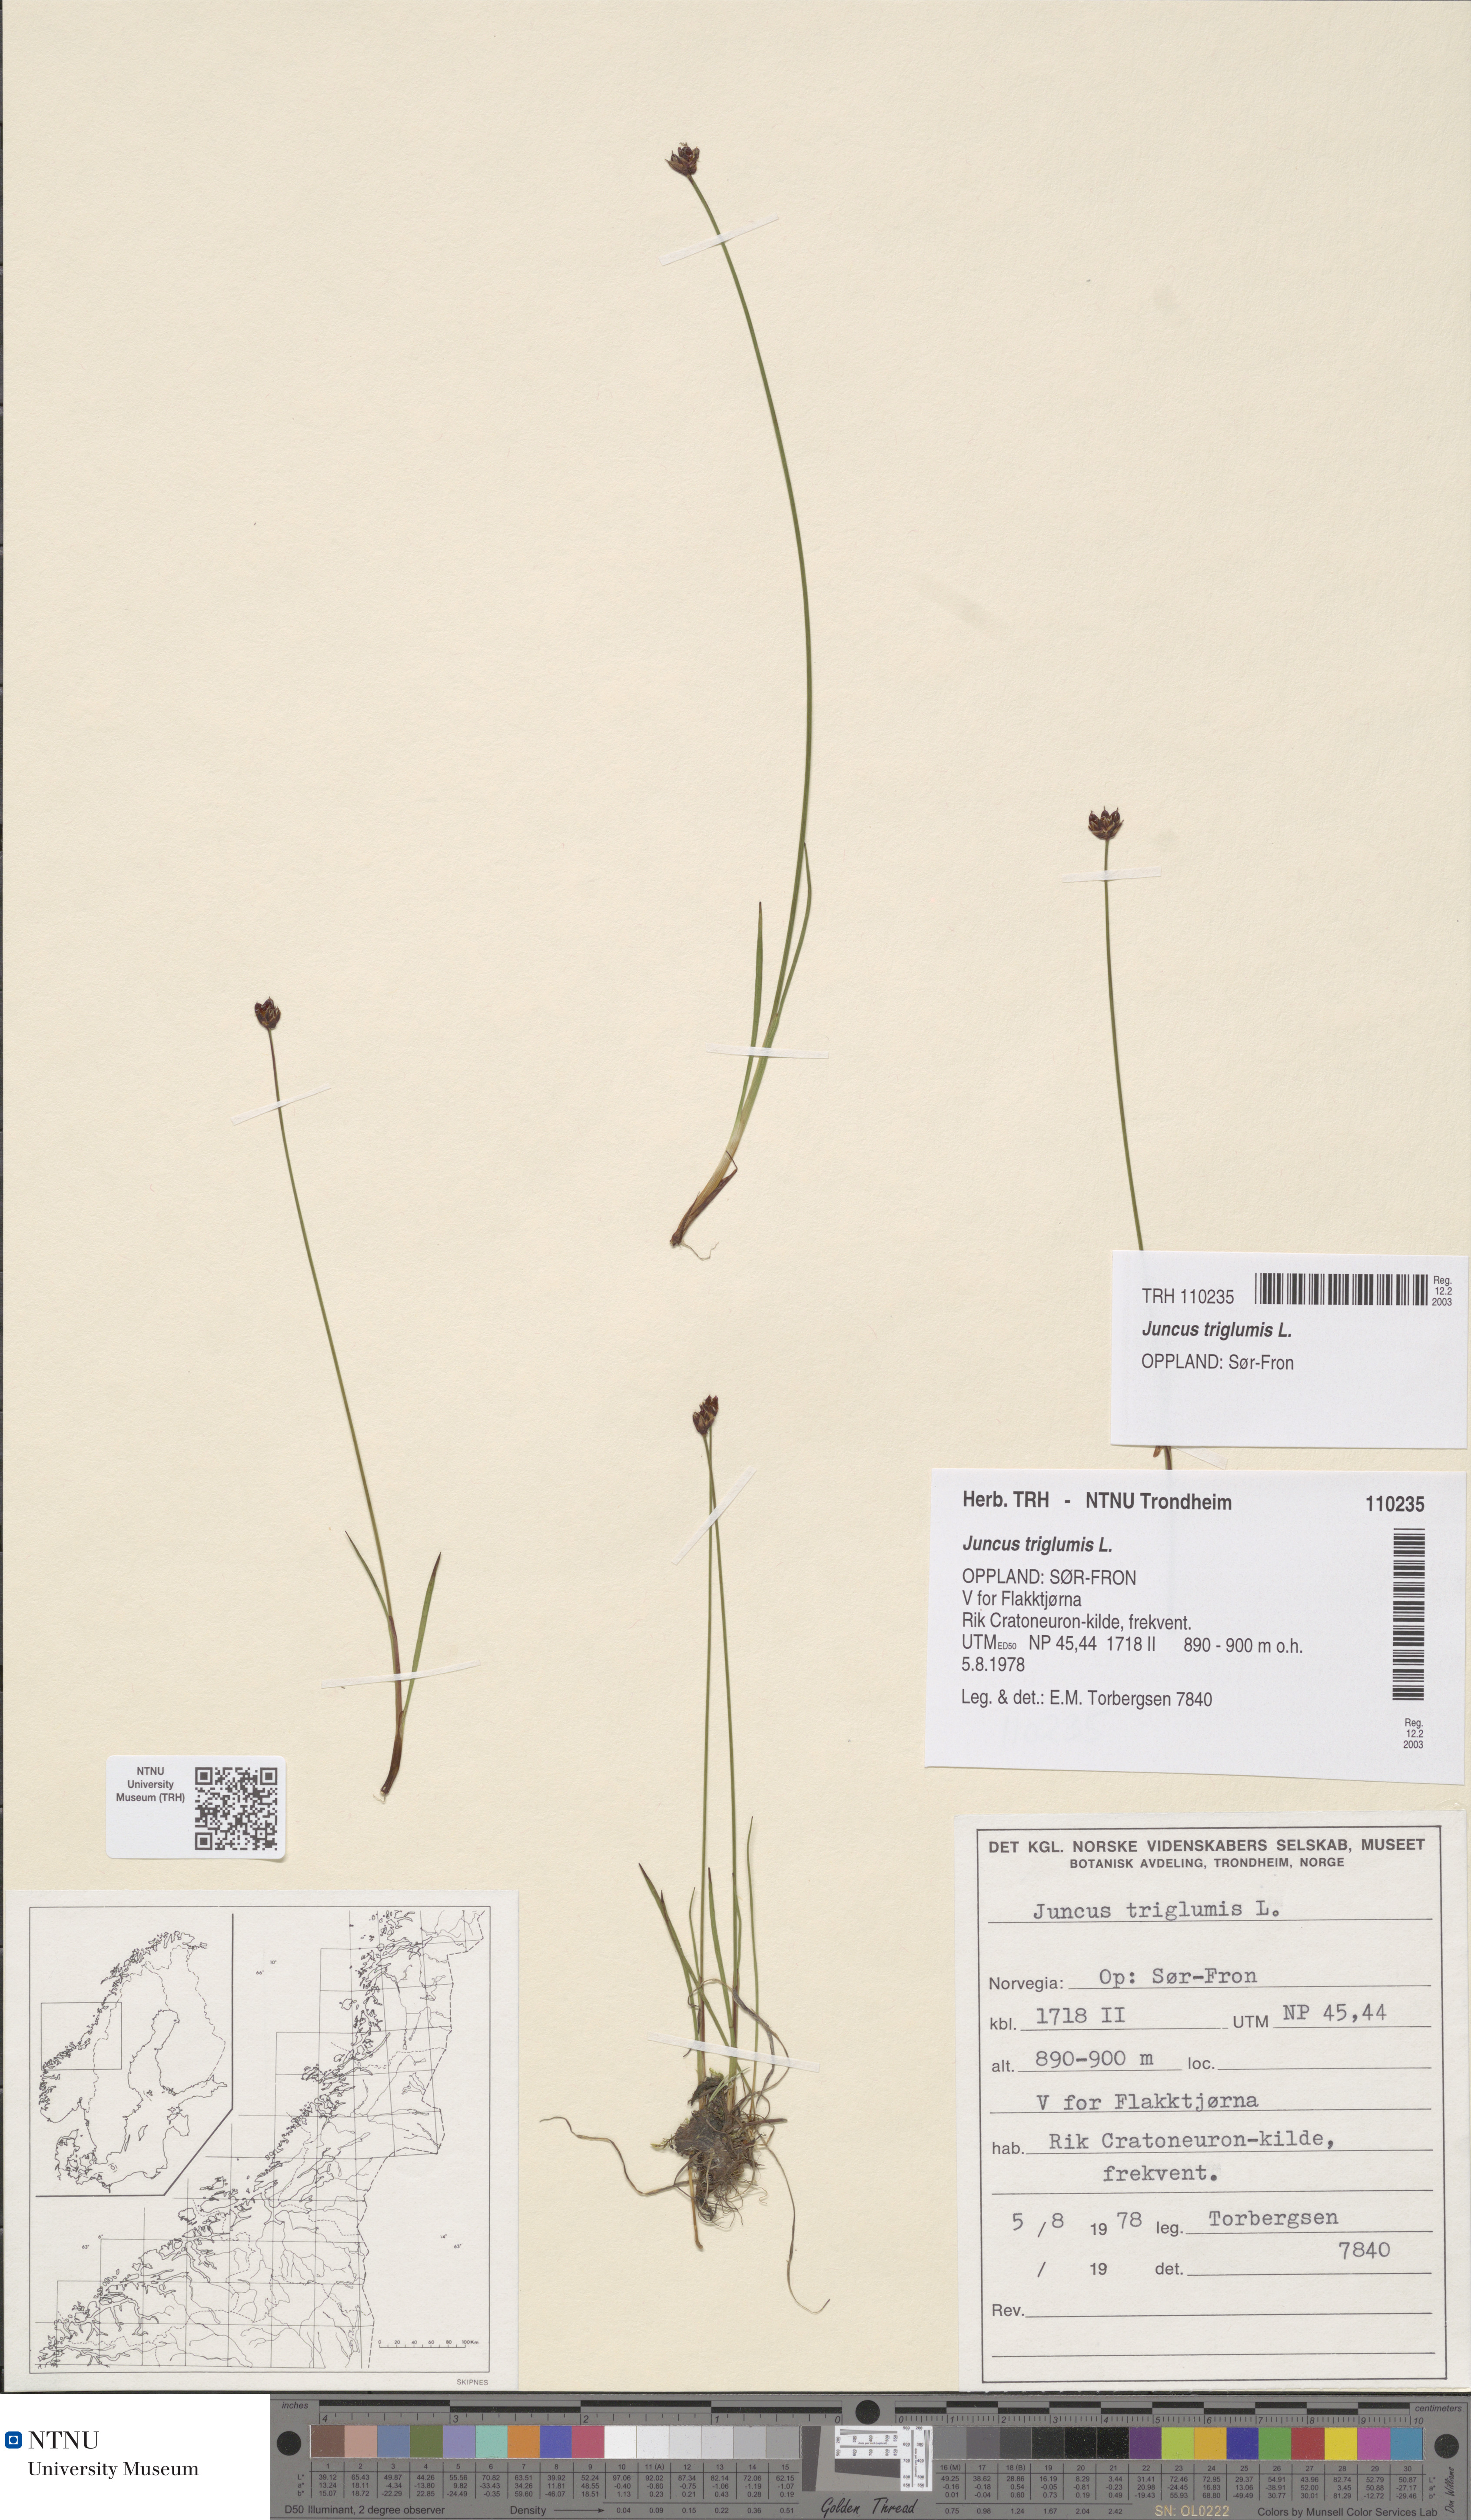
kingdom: Plantae
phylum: Tracheophyta
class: Liliopsida
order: Poales
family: Juncaceae
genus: Juncus
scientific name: Juncus triglumis
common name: Three-flowered rush
